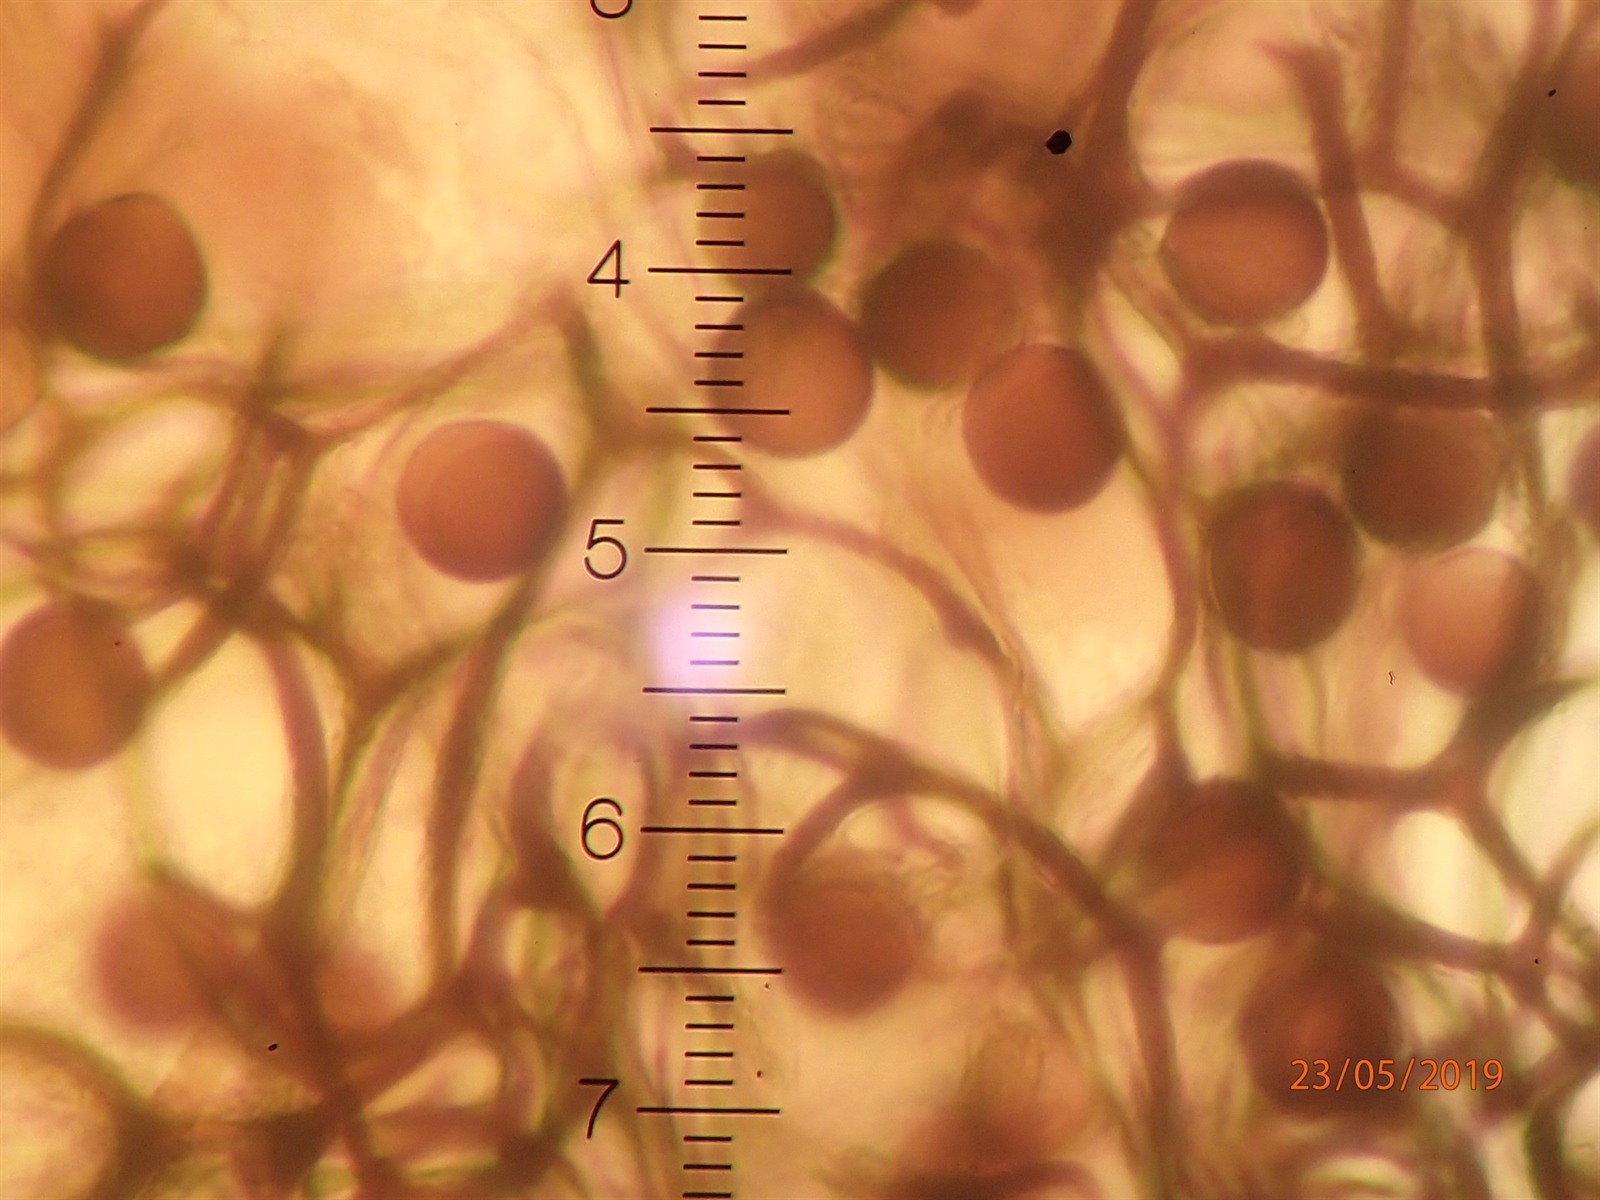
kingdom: Protozoa
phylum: Mycetozoa
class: Myxomycetes
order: Stemonitidales
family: Stemonitidaceae
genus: Lamproderma
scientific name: Lamproderma maculatum
